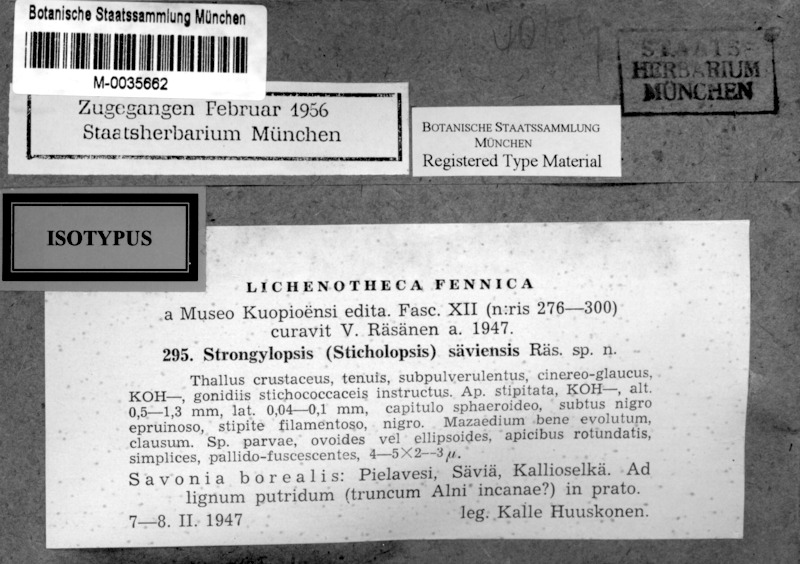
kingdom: Animalia
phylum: Arthropoda
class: Insecta
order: Hymenoptera
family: Ichneumonidae
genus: Strongylopsis
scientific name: Strongylopsis
